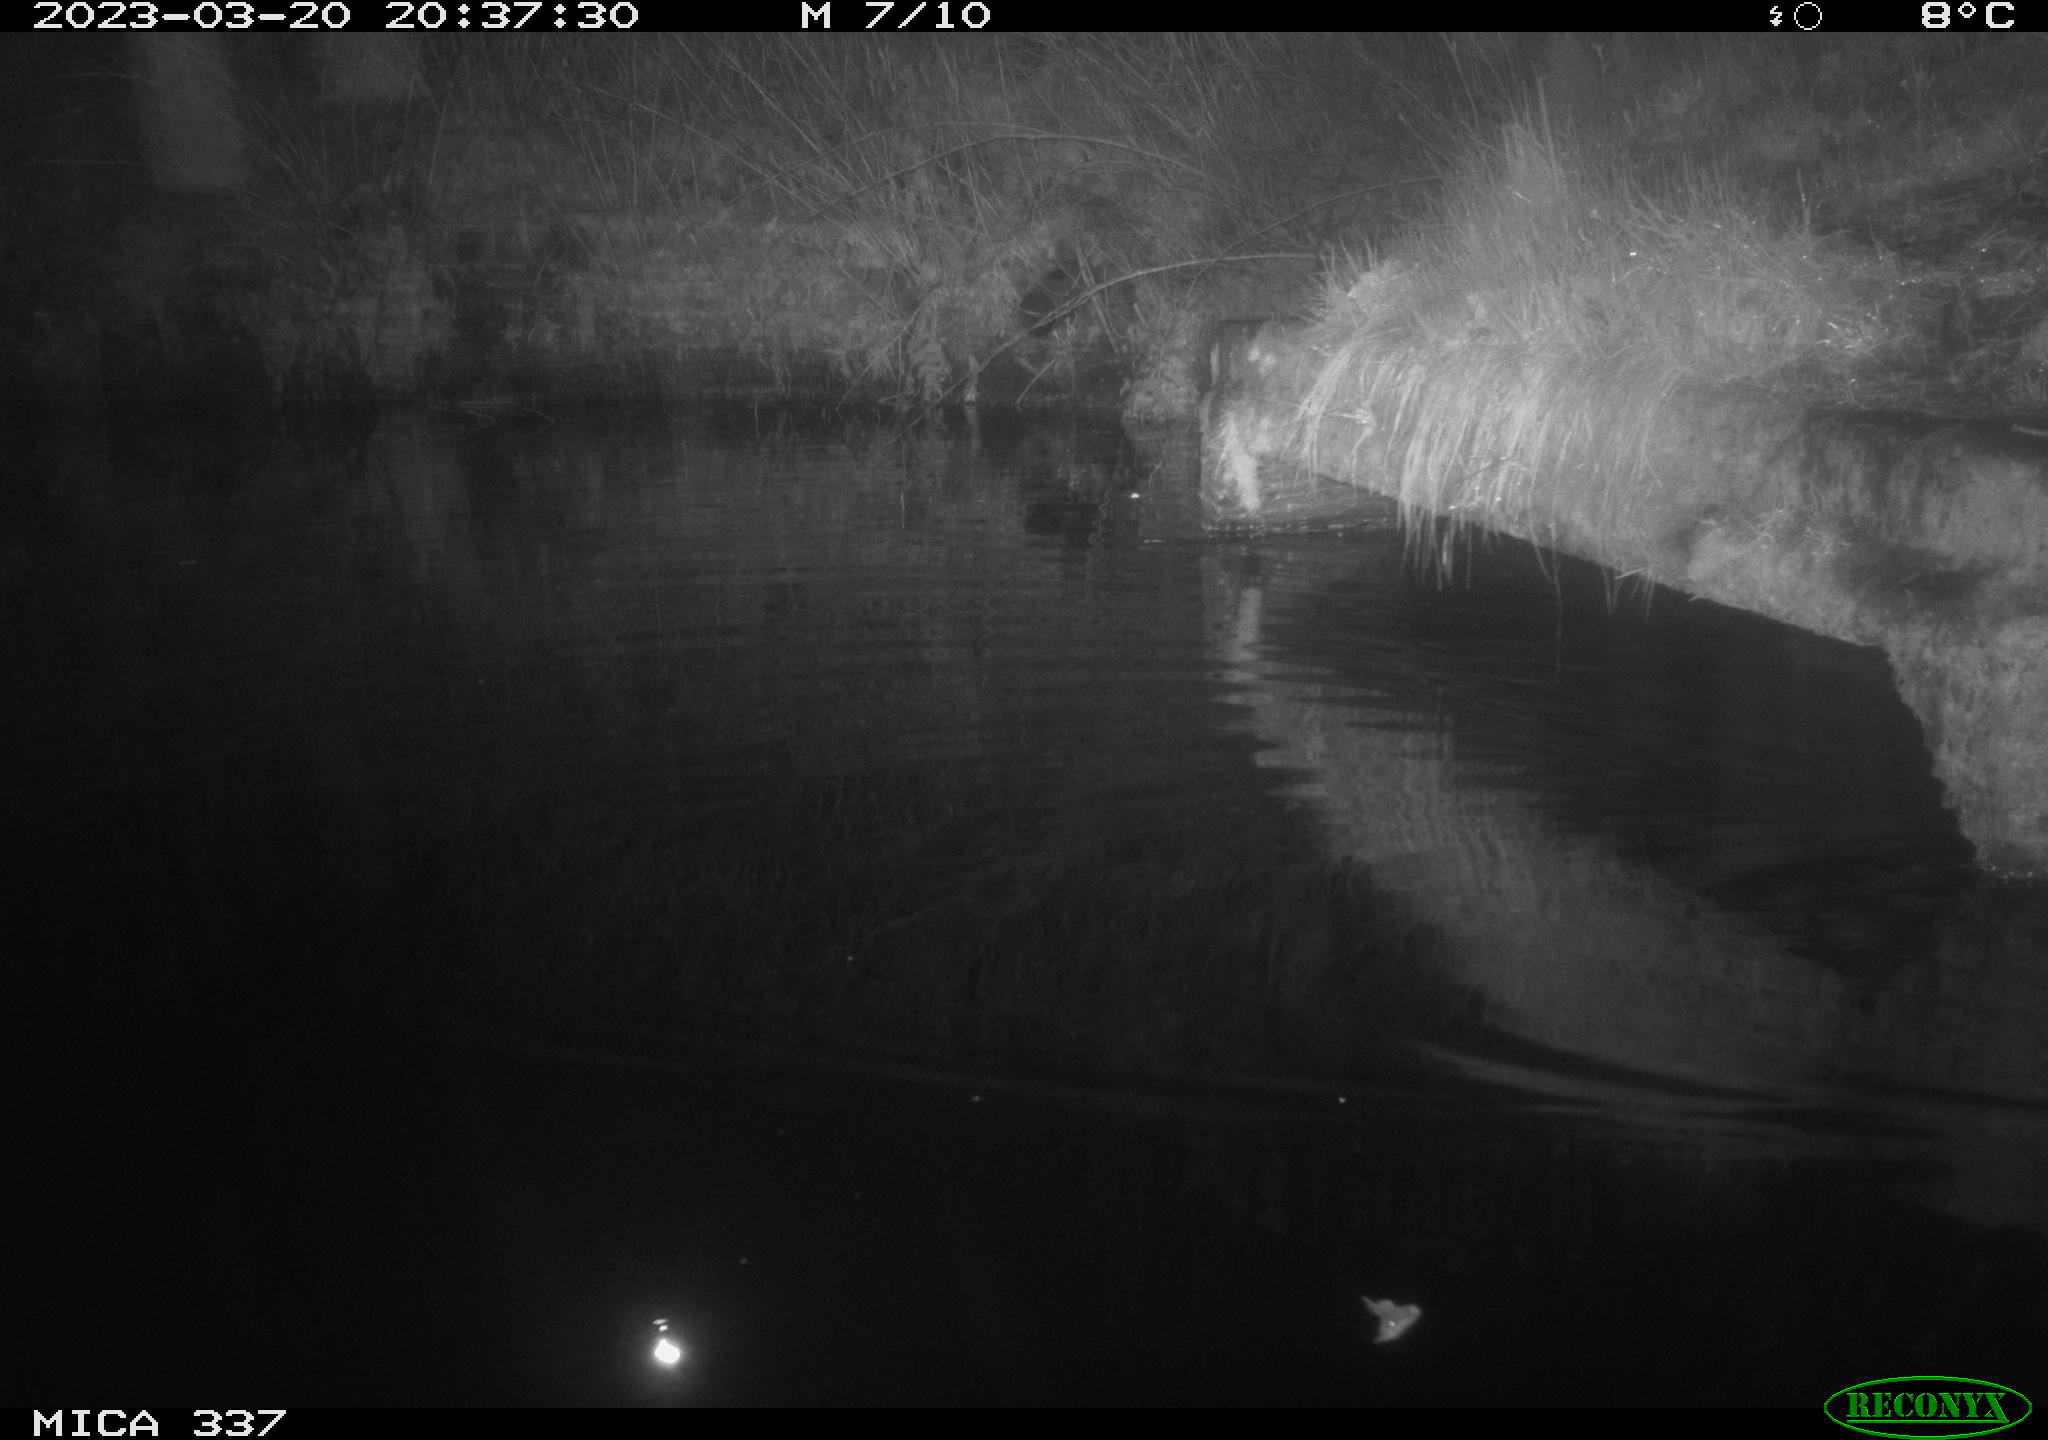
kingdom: Animalia
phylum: Chordata
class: Mammalia
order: Rodentia
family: Muridae
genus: Rattus
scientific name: Rattus norvegicus
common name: Brown rat
